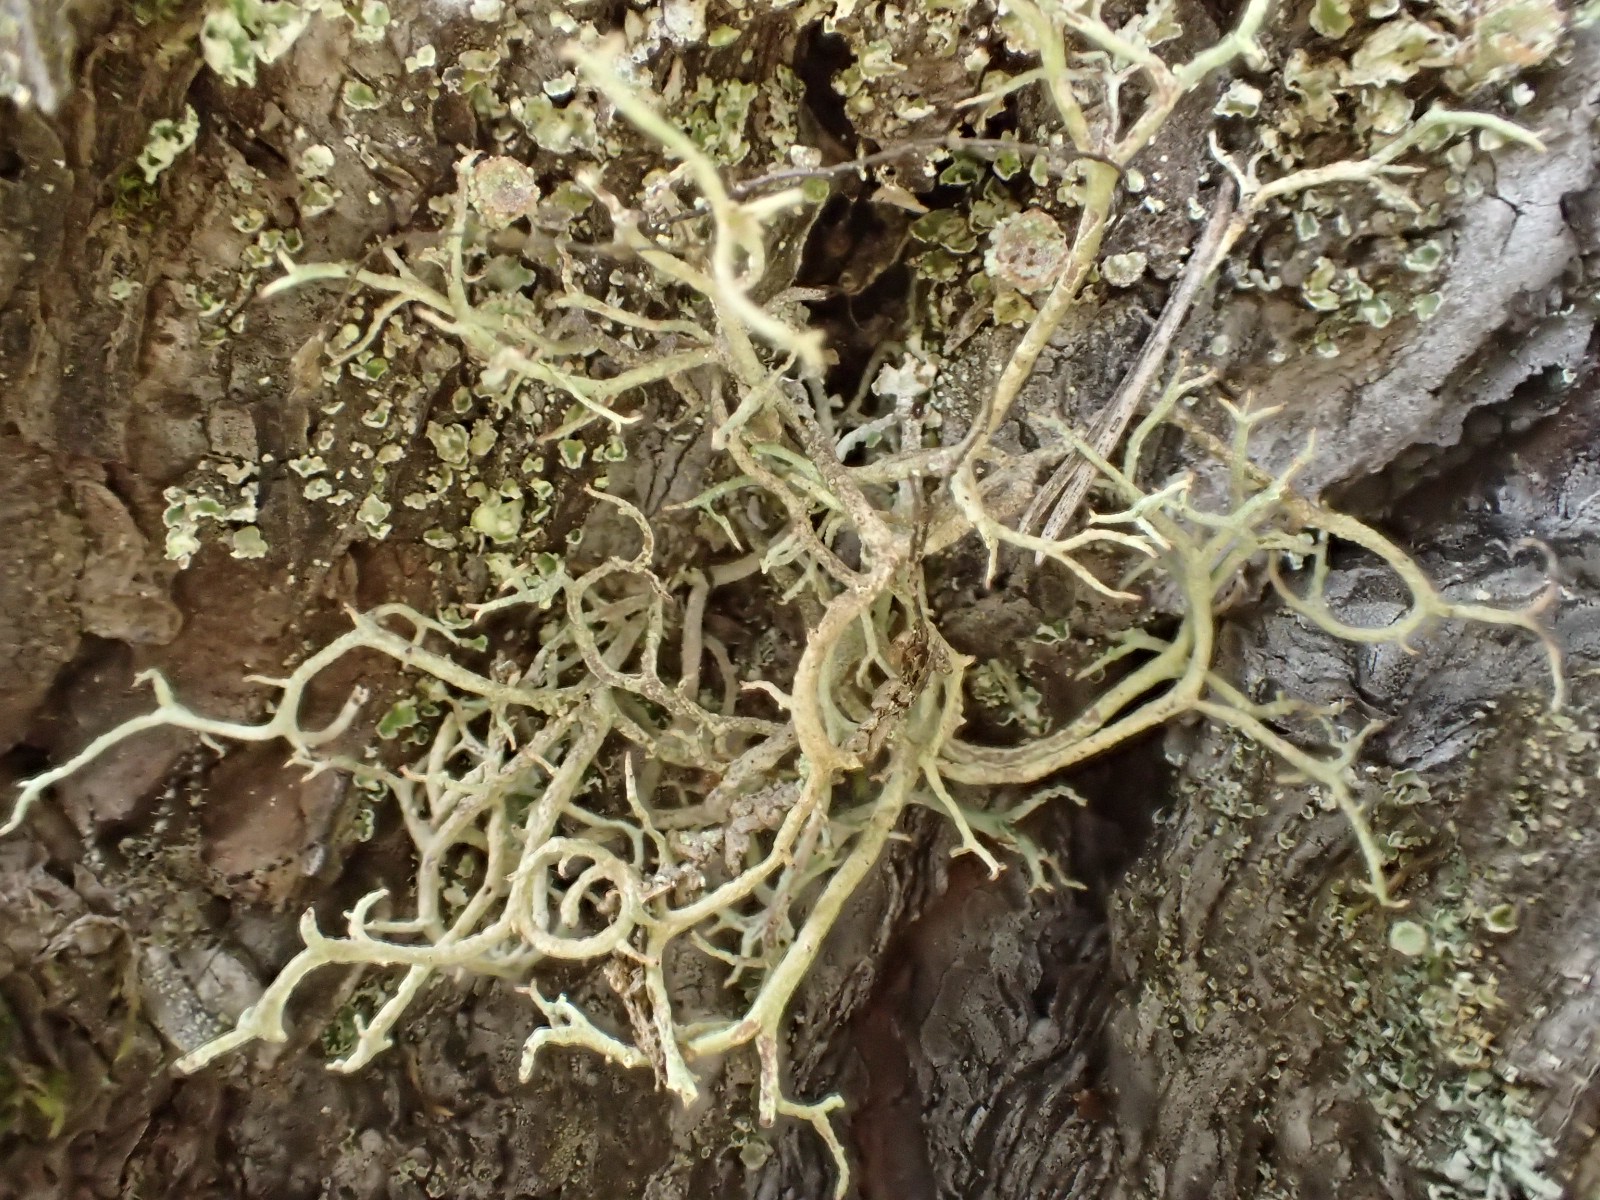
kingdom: Fungi
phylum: Ascomycota
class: Lecanoromycetes
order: Lecanorales
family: Cladoniaceae
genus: Cladonia
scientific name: Cladonia furcata
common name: kløftet bægerlav
